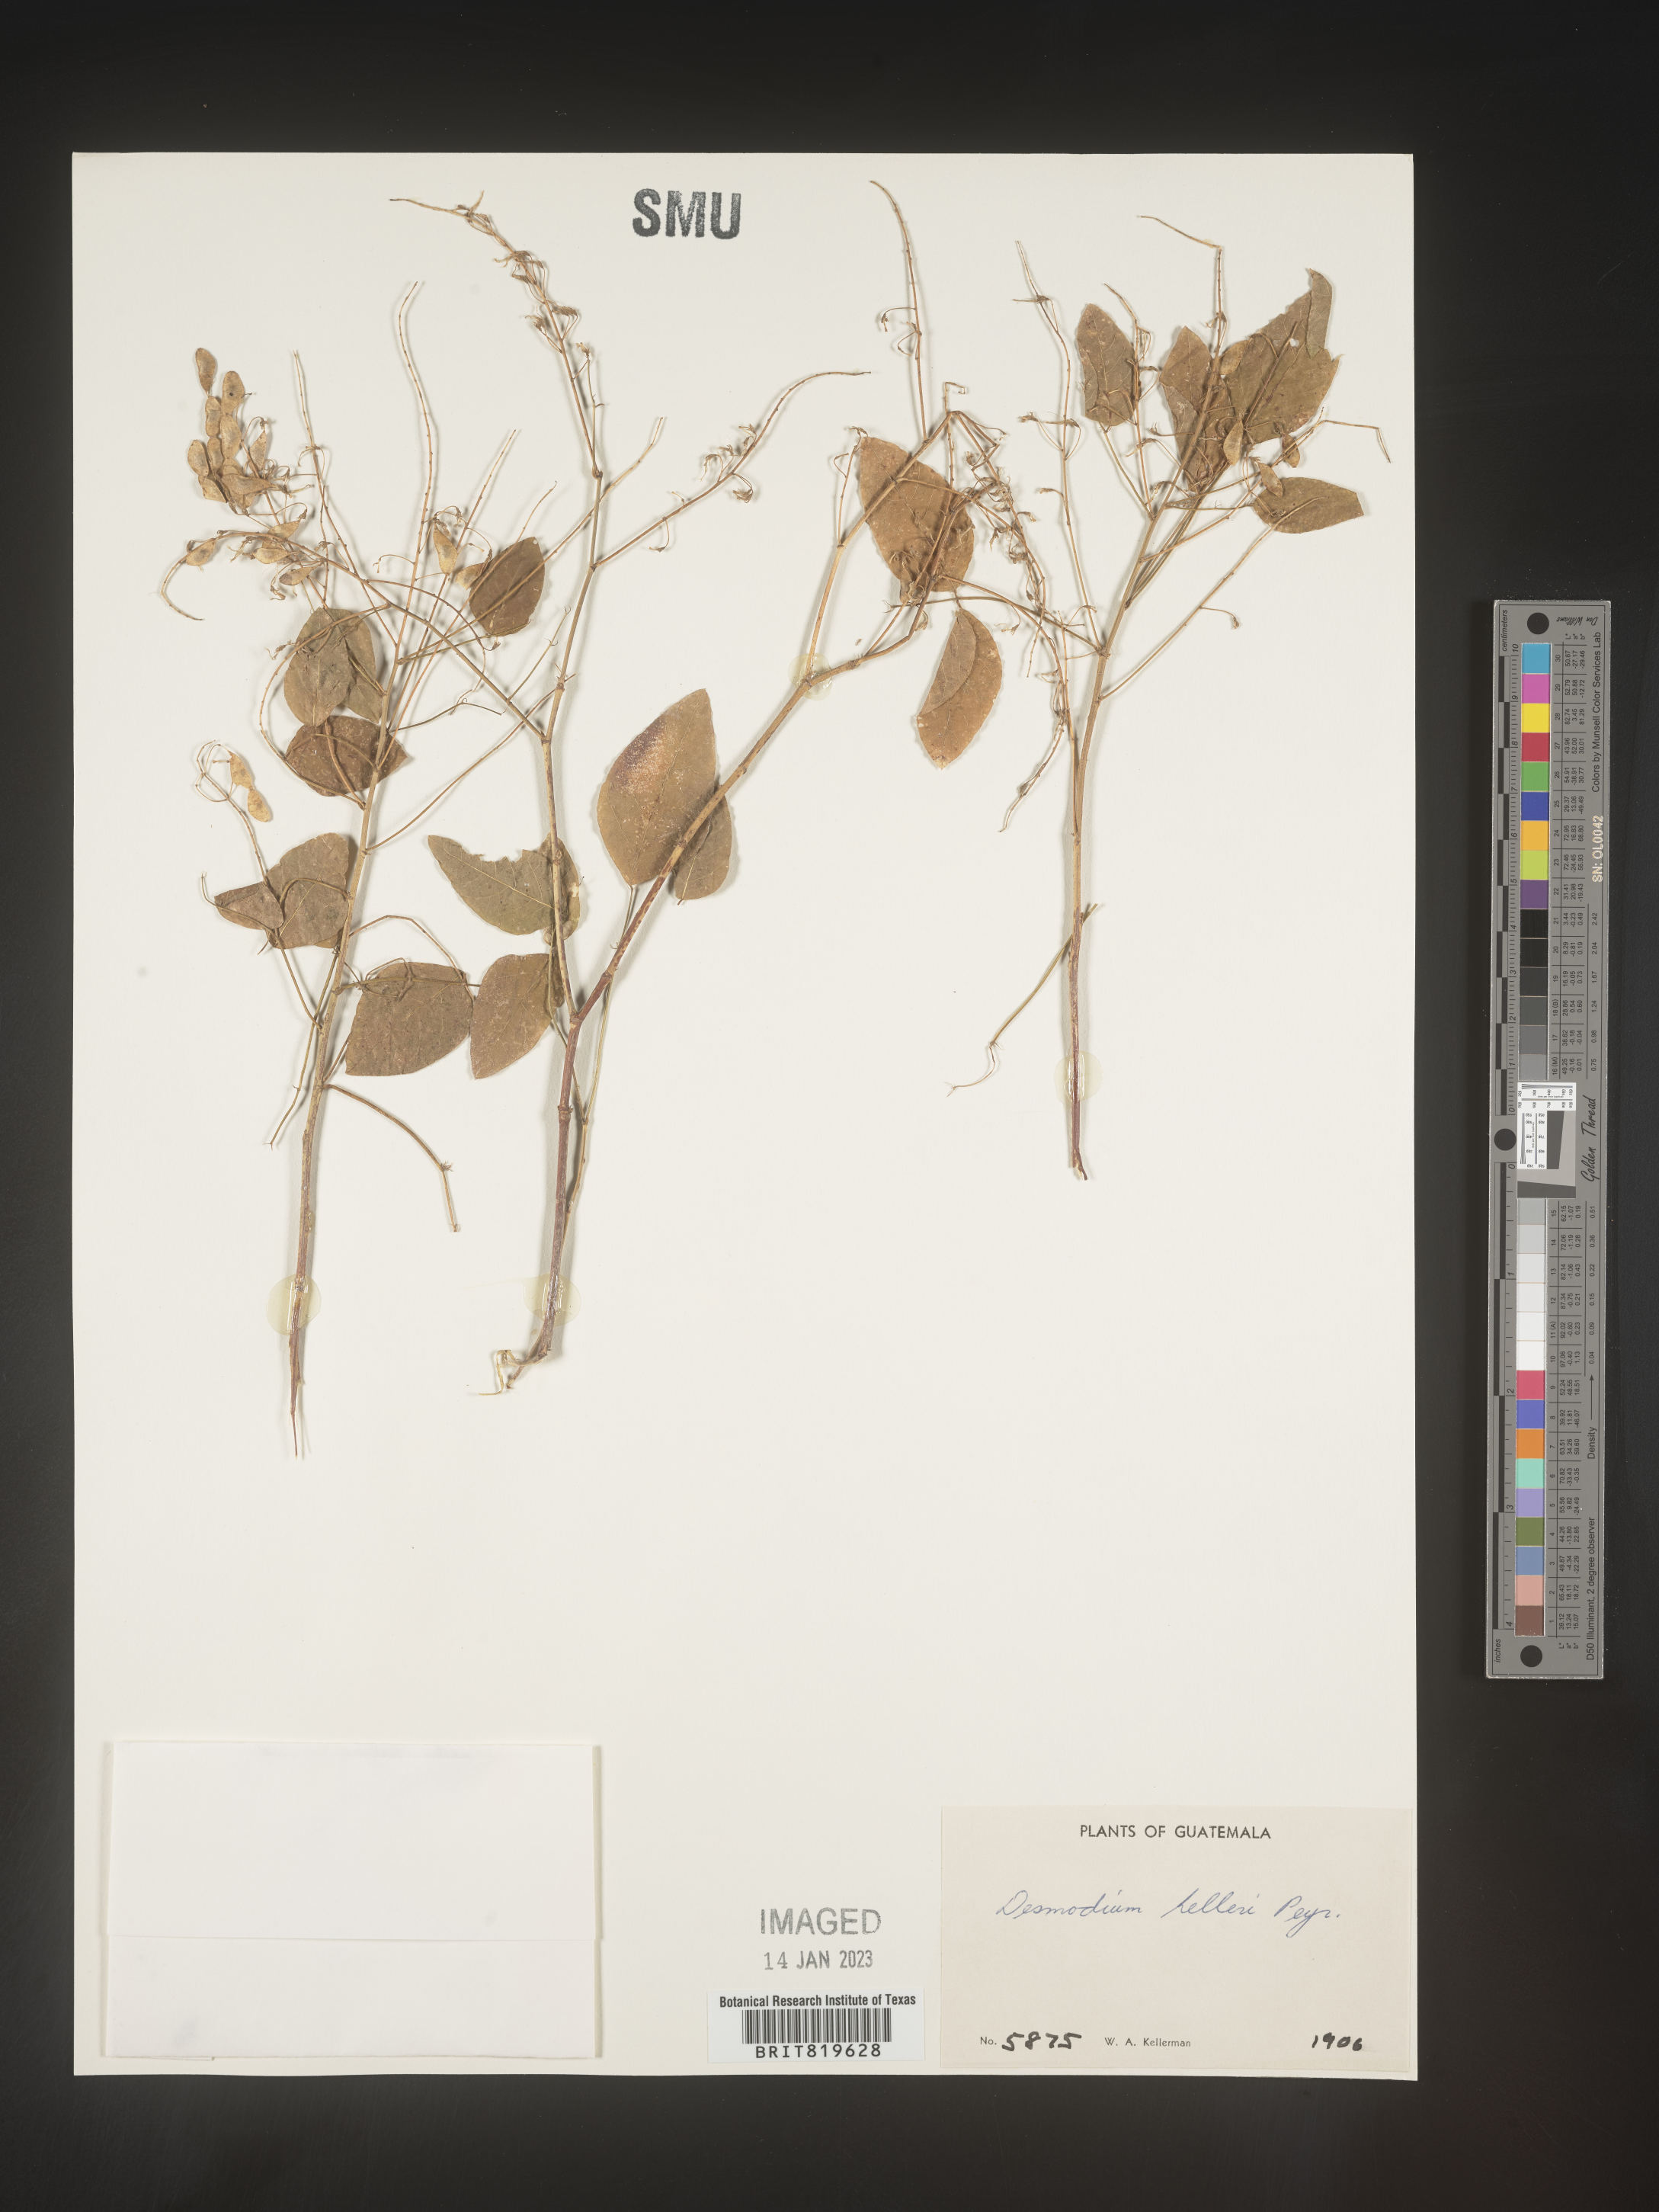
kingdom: Plantae
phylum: Tracheophyta
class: Magnoliopsida
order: Fabales
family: Fabaceae
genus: Desmodium
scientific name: Desmodium
